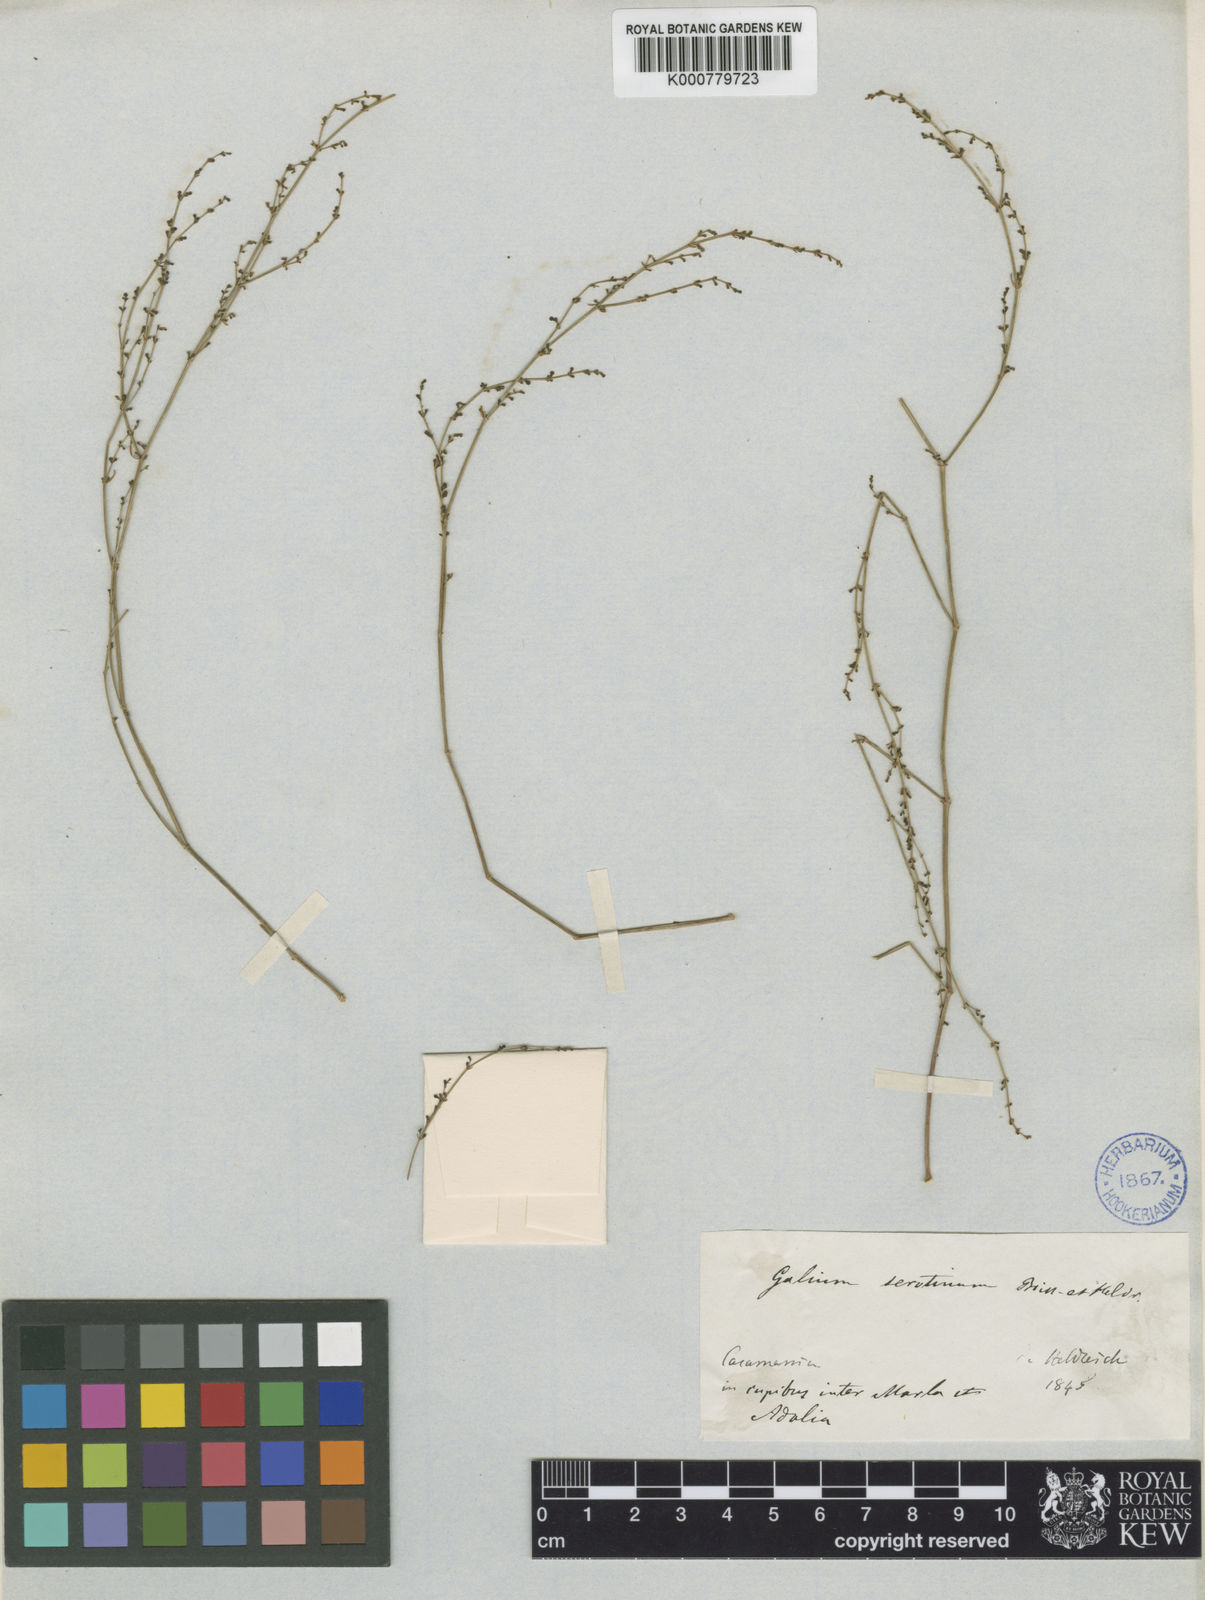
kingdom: Plantae
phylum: Tracheophyta
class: Magnoliopsida
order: Gentianales
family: Rubiaceae
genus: Thliphthisa
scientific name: Thliphthisa serotina
